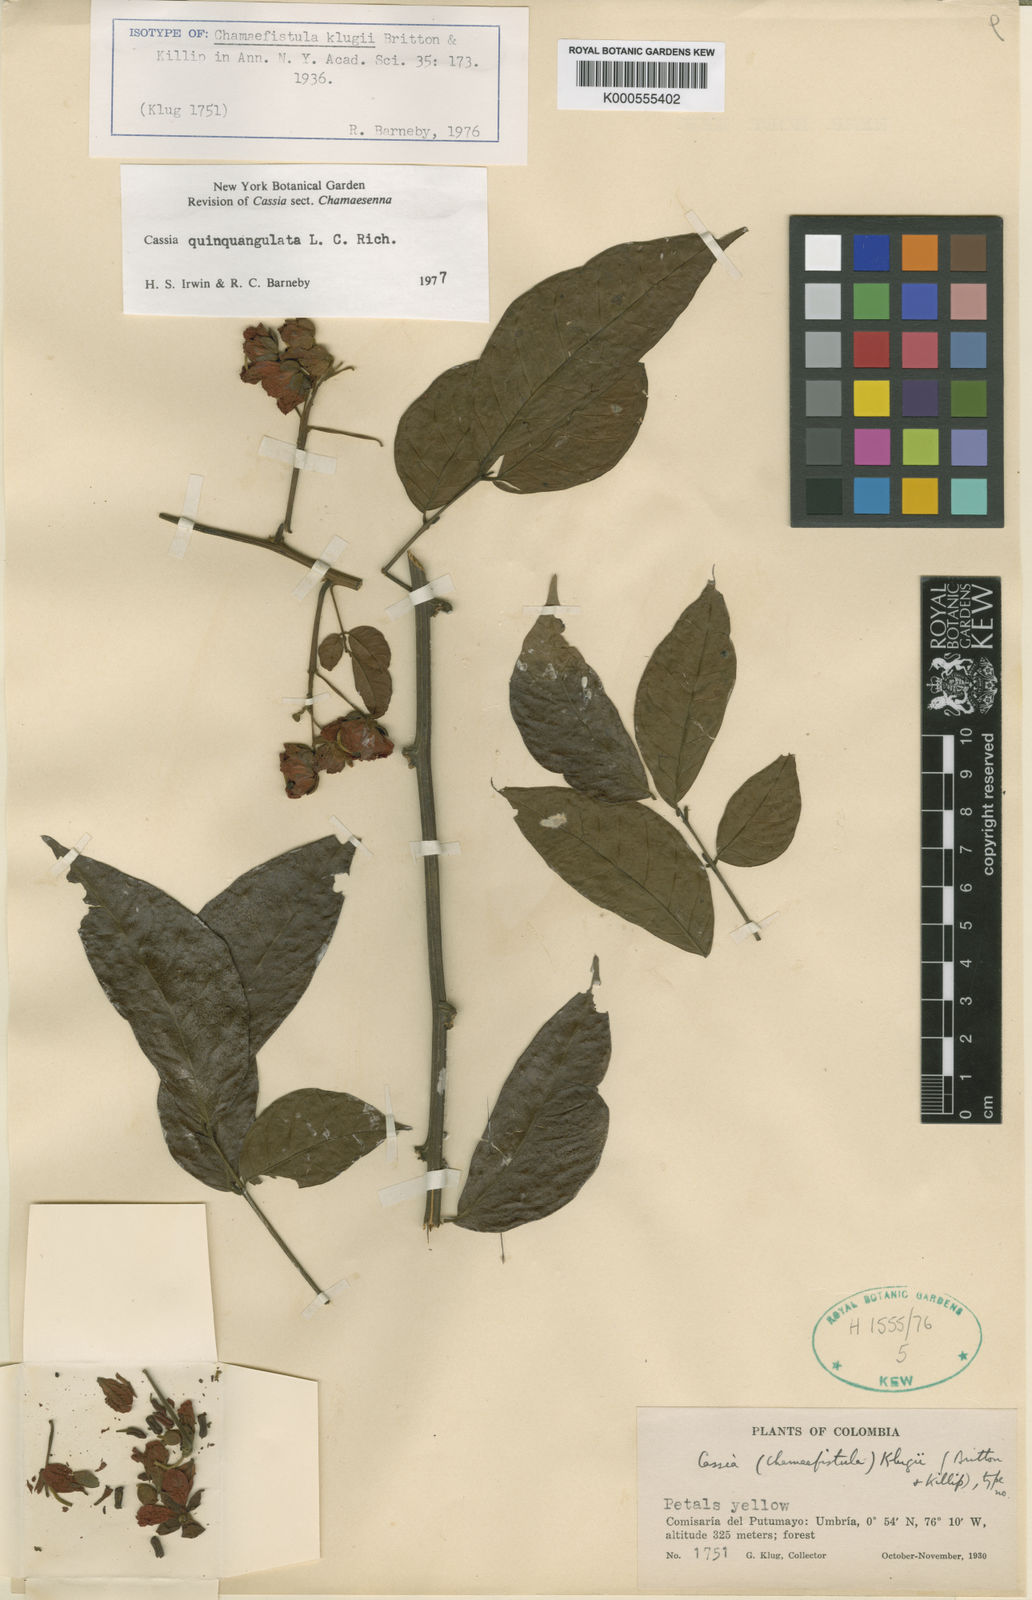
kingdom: Plantae
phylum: Tracheophyta
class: Magnoliopsida
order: Fabales
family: Fabaceae
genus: Senna
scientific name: Senna quinquangulata
